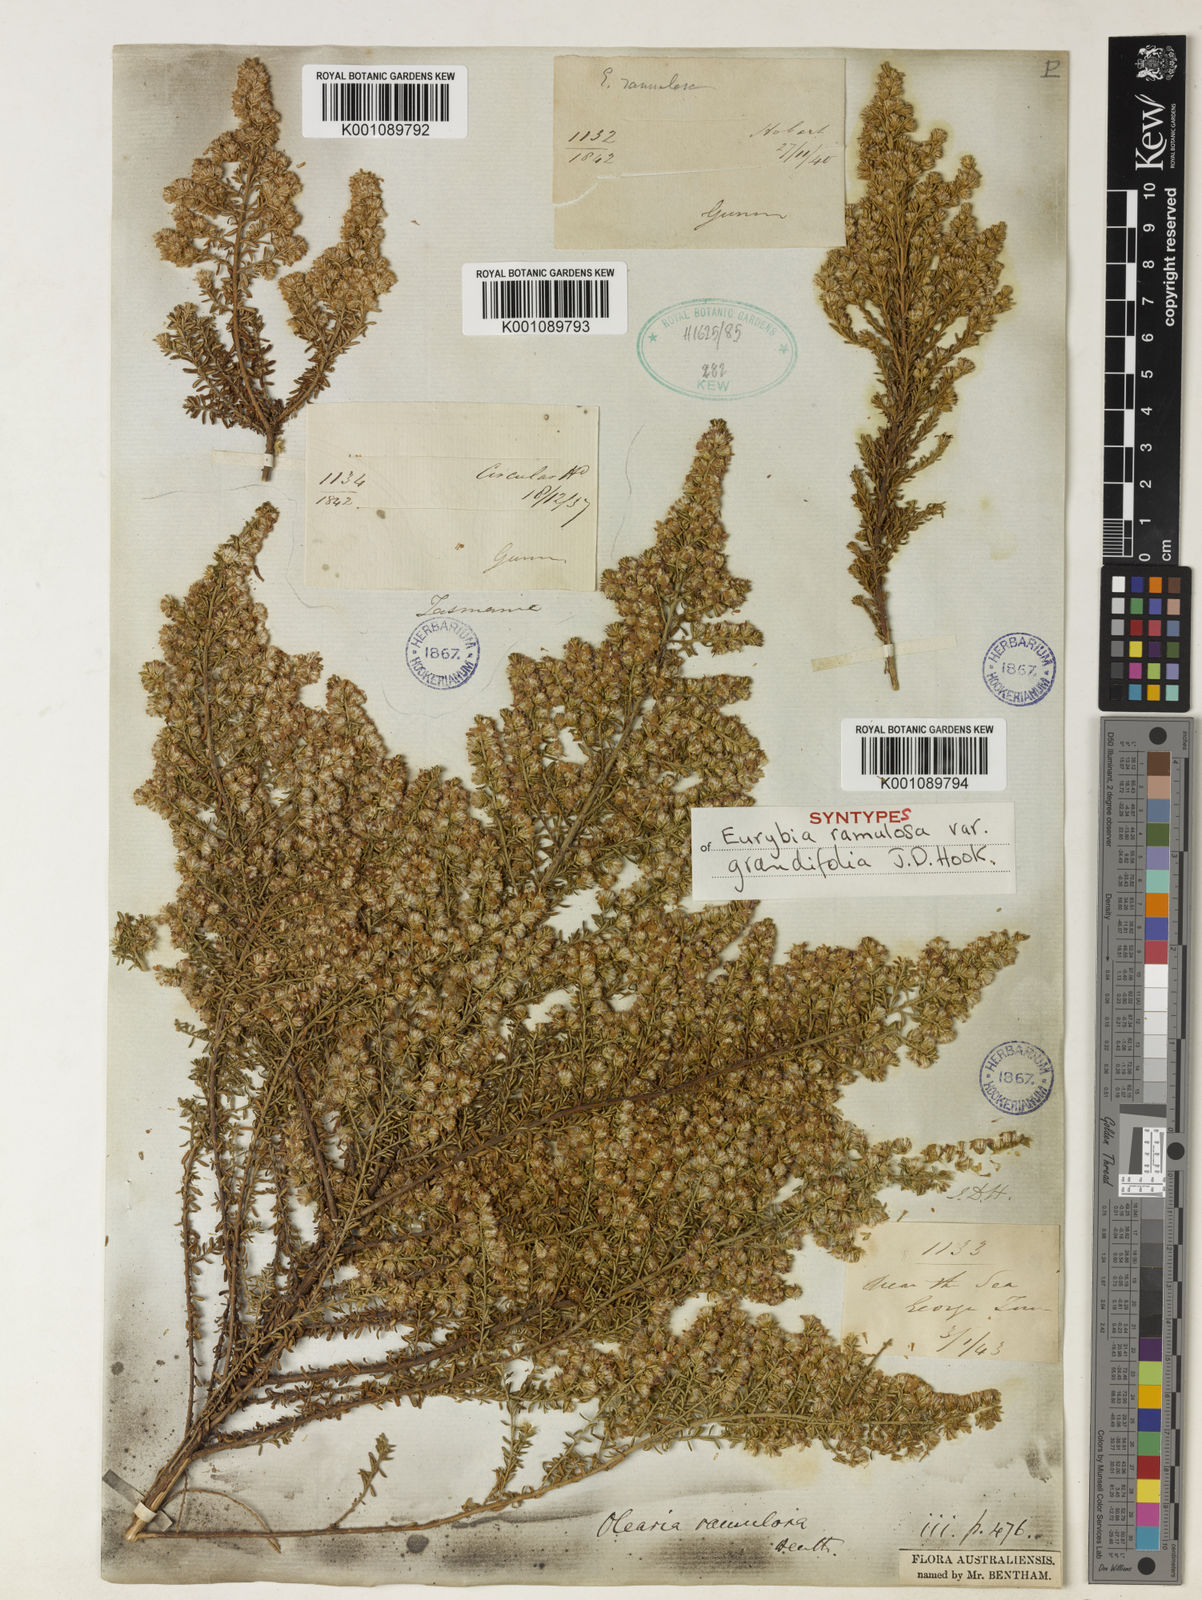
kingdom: Plantae
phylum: Tracheophyta
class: Magnoliopsida
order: Asterales
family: Asteraceae
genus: Olearia
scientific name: Olearia ramulosa
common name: Twiggy daisybush
